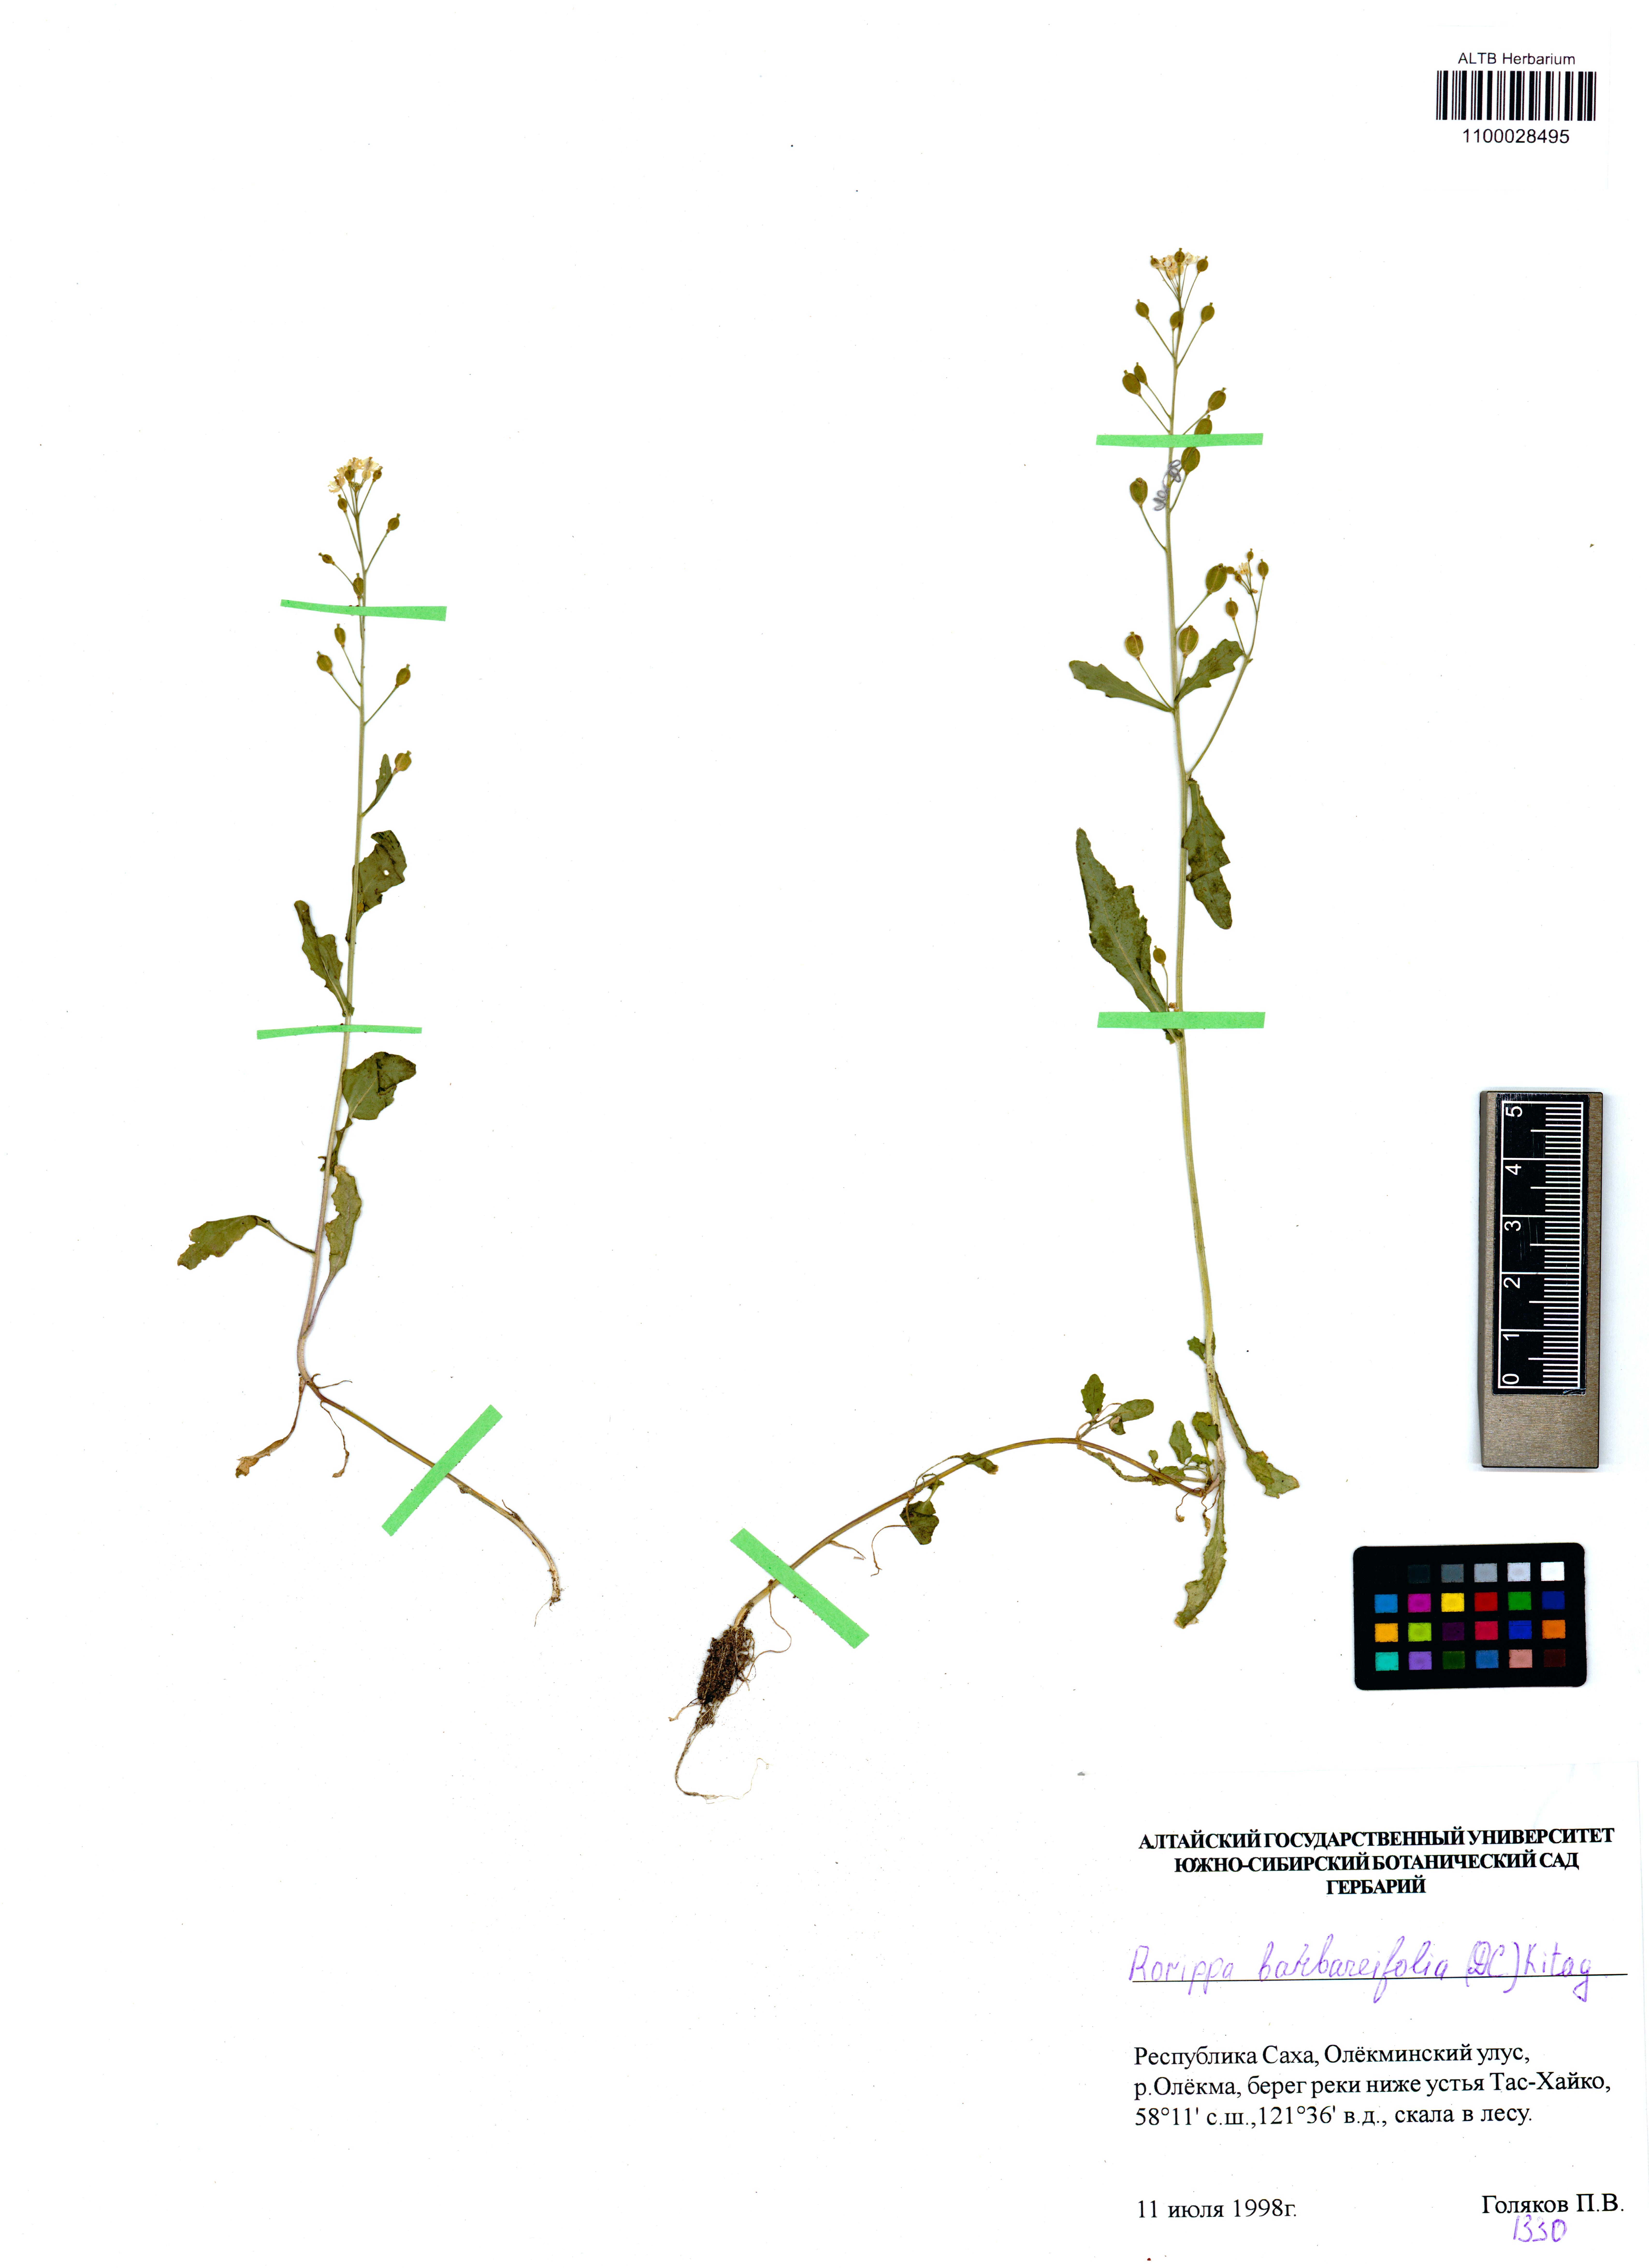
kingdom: Plantae
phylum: Tracheophyta
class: Magnoliopsida
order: Brassicales
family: Brassicaceae
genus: Rorippa
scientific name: Rorippa barbaraefolia
